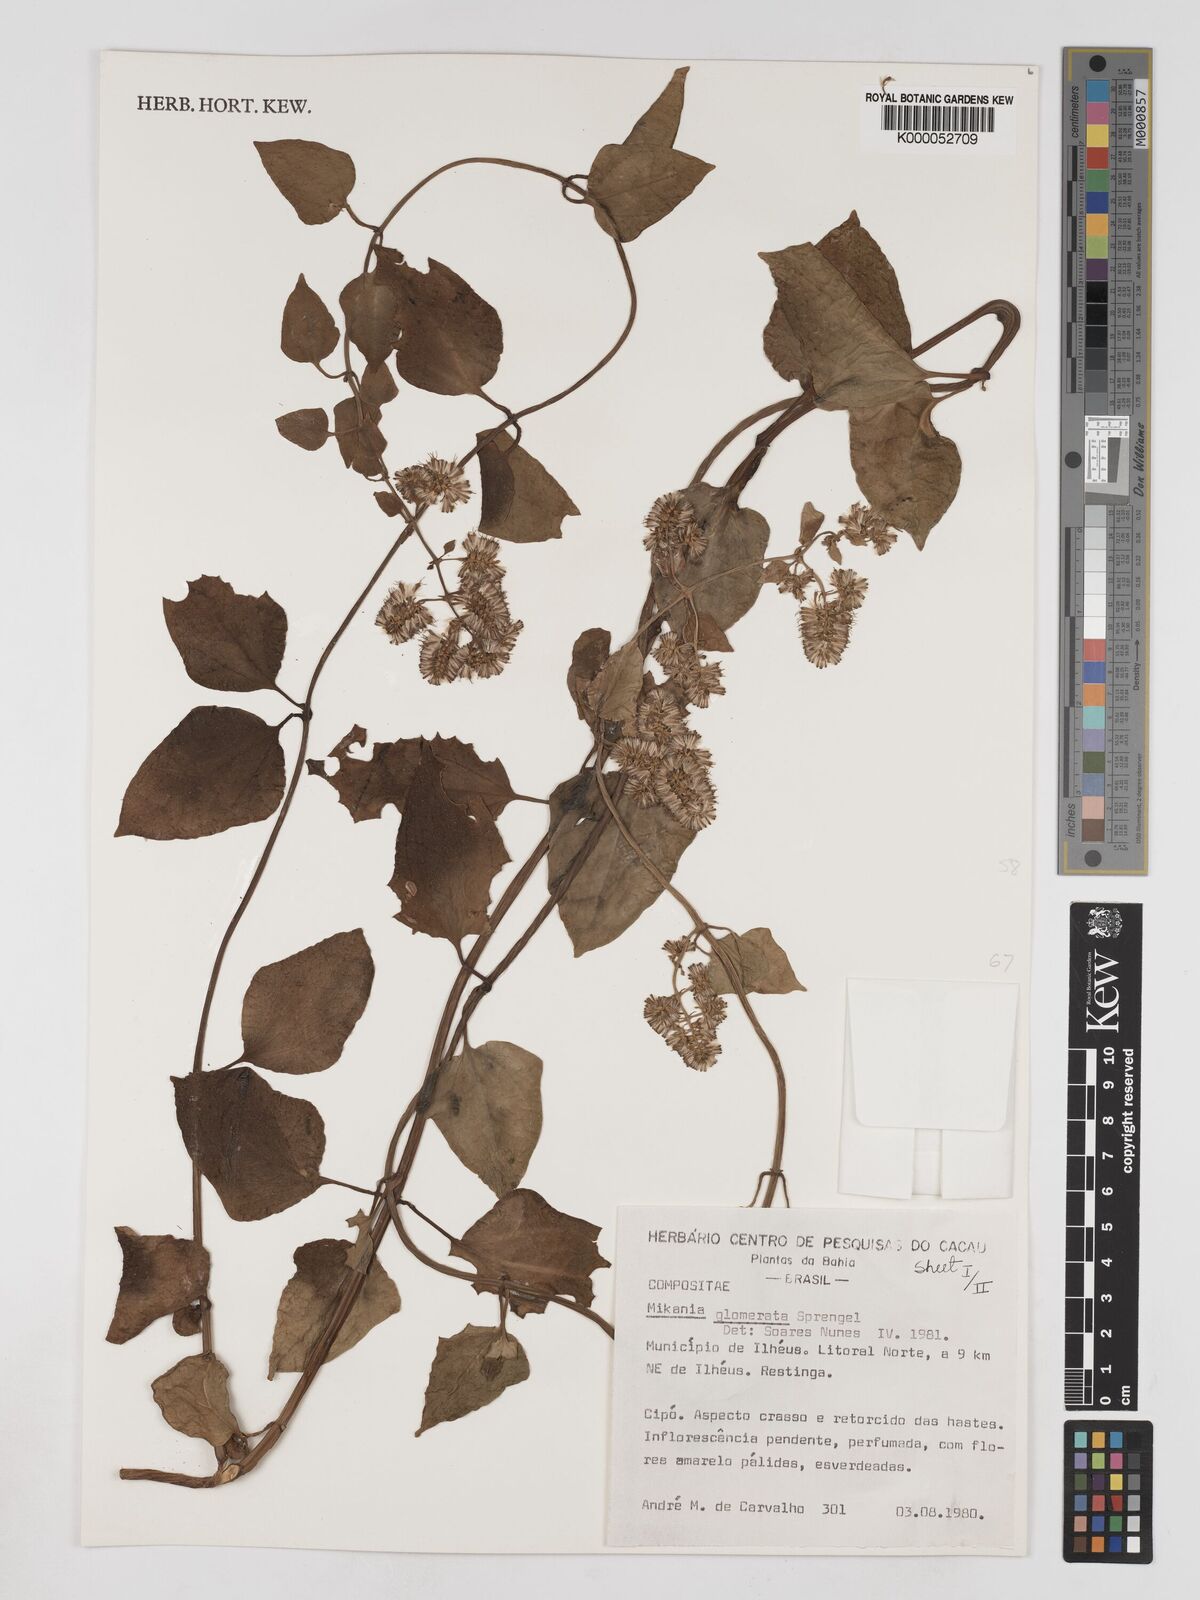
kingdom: Plantae
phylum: Tracheophyta
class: Magnoliopsida
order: Asterales
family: Asteraceae
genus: Mikania
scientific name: Mikania glomerata
